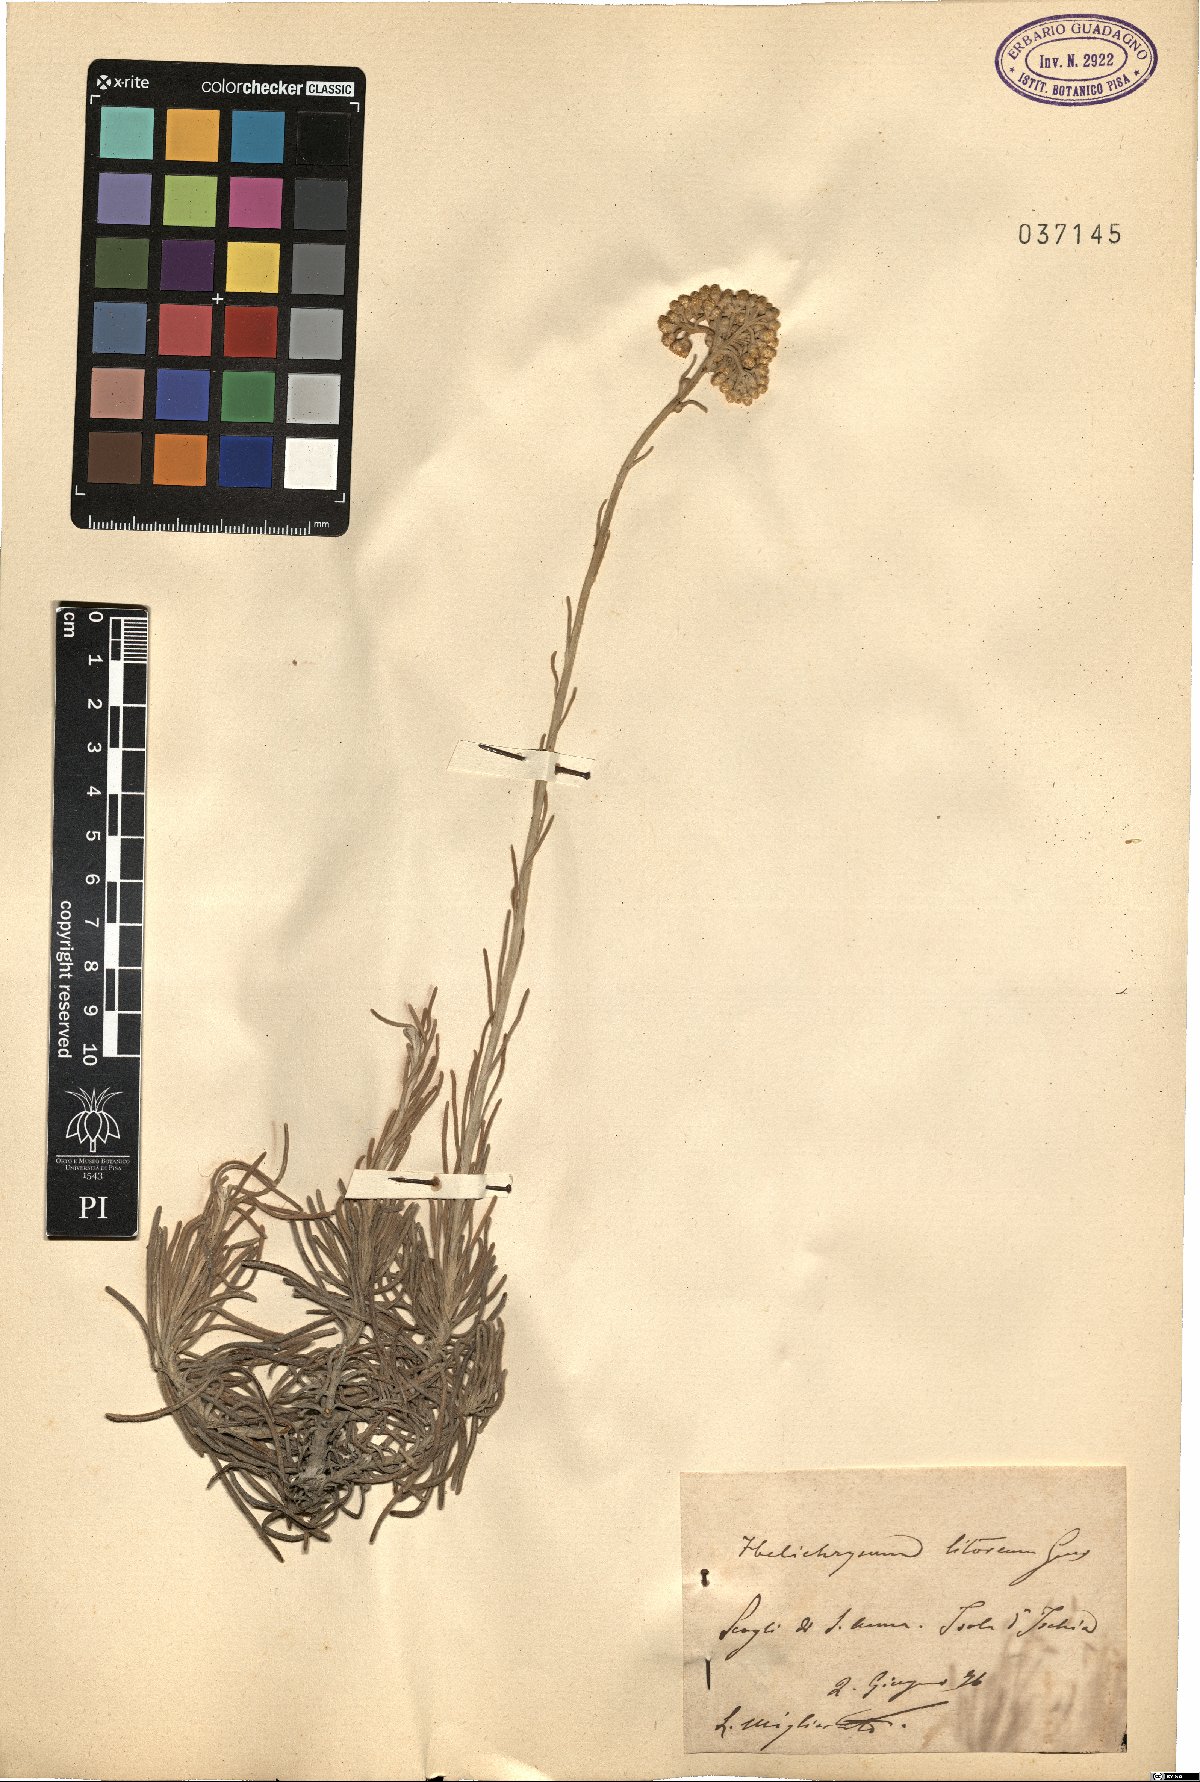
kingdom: Plantae
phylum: Tracheophyta
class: Magnoliopsida
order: Asterales
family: Asteraceae
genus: Helichrysum
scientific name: Helichrysum litoreum
